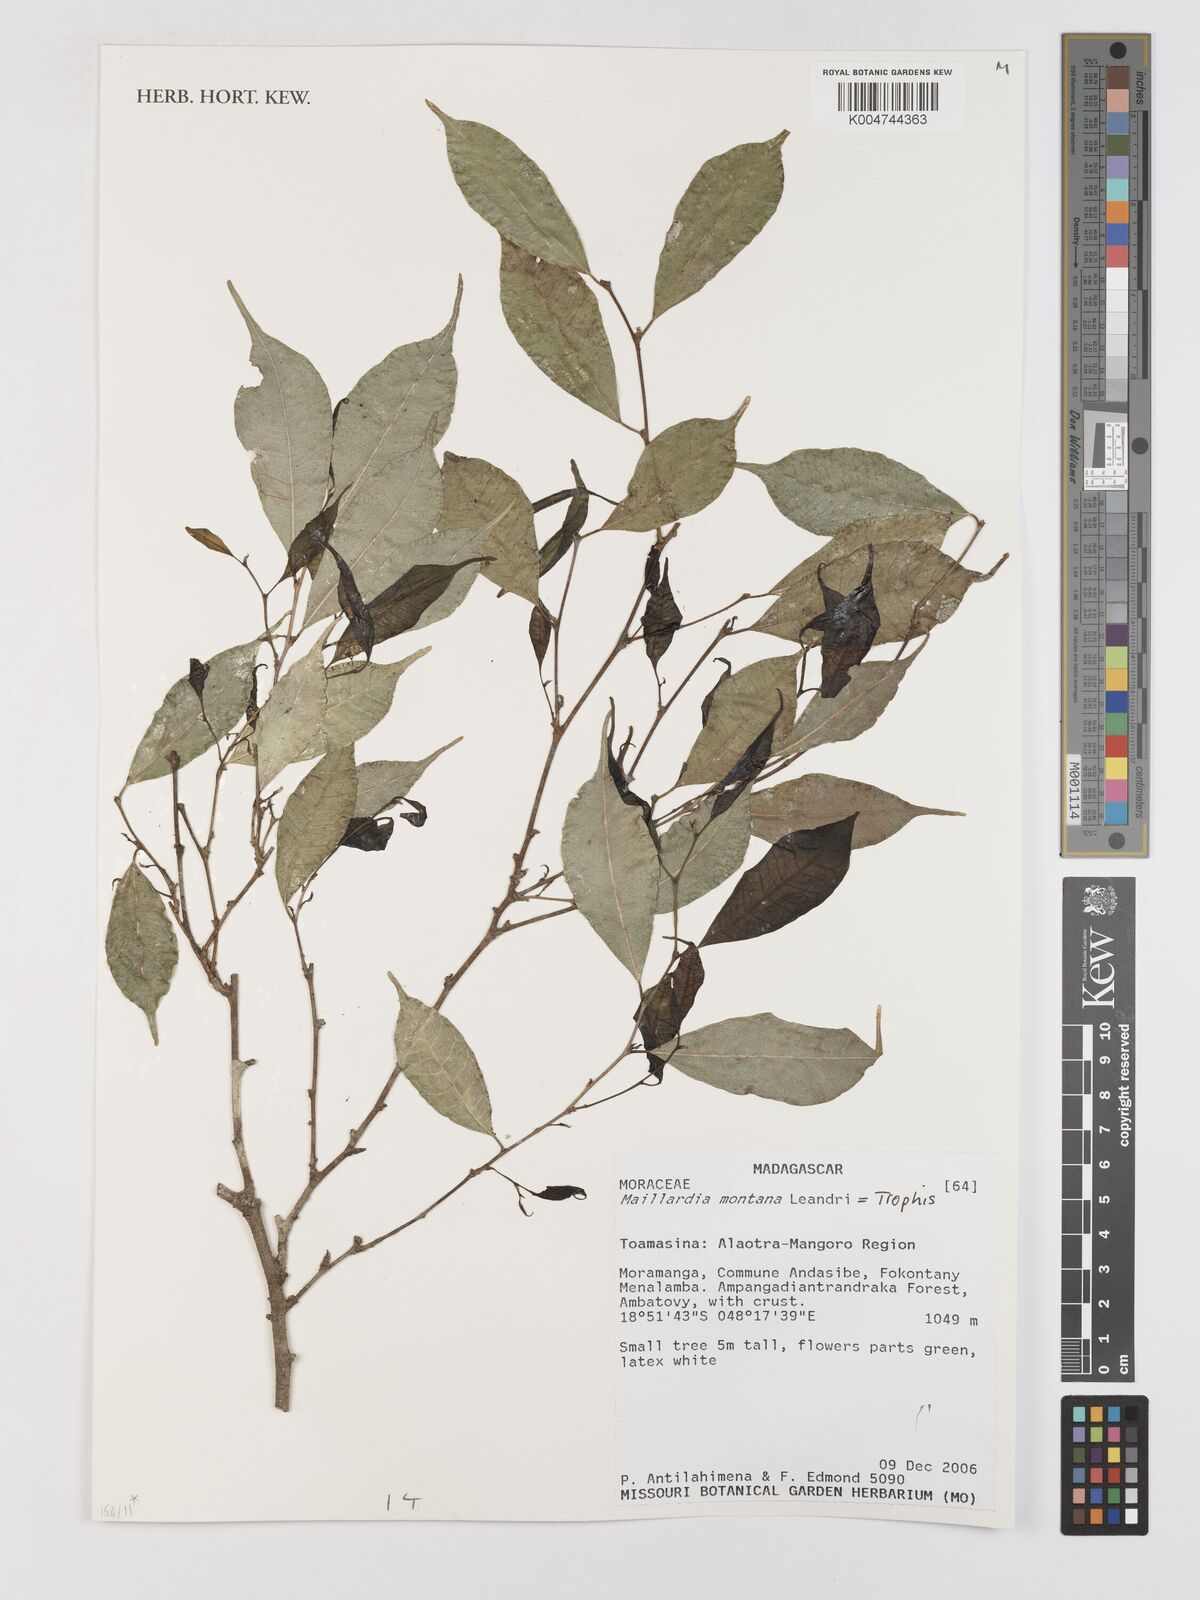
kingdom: Plantae
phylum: Tracheophyta
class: Magnoliopsida
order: Rosales
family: Moraceae
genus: Maillardia
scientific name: Maillardia montana
